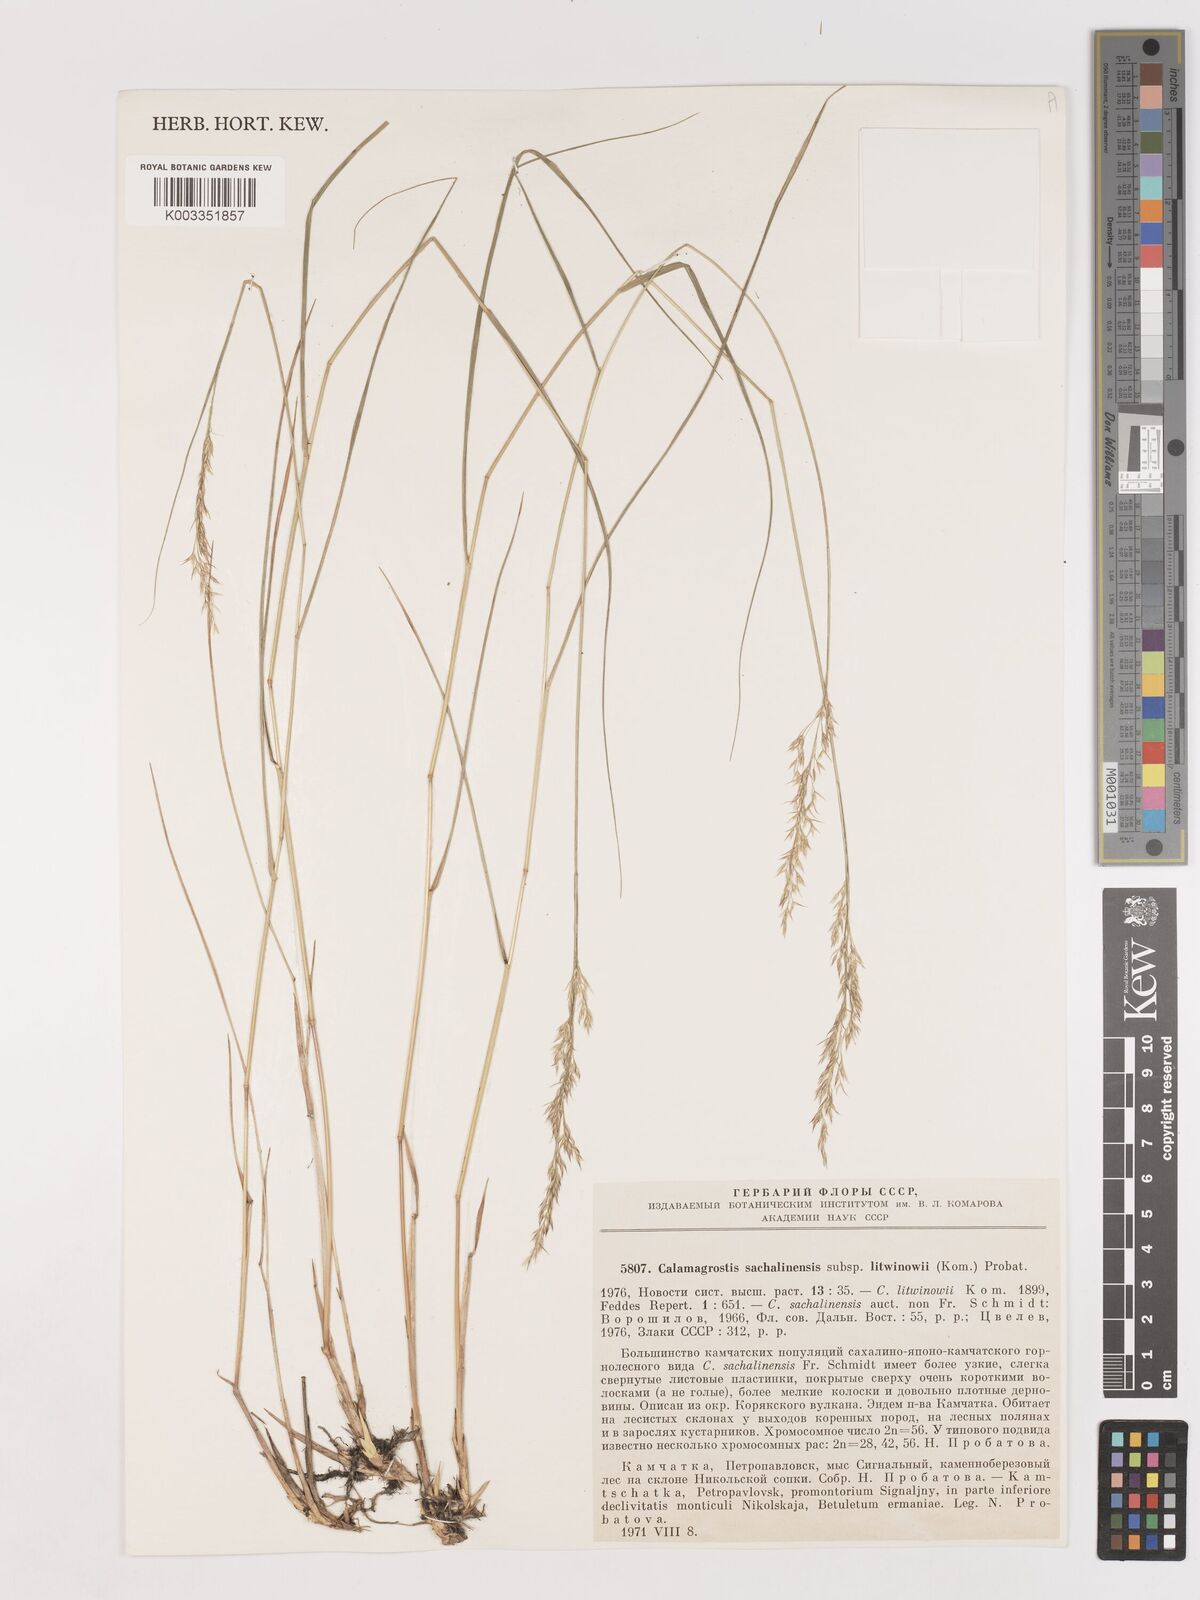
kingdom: Plantae
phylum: Tracheophyta
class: Liliopsida
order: Poales
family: Poaceae
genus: Calamagrostis
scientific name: Calamagrostis sachalinensis
